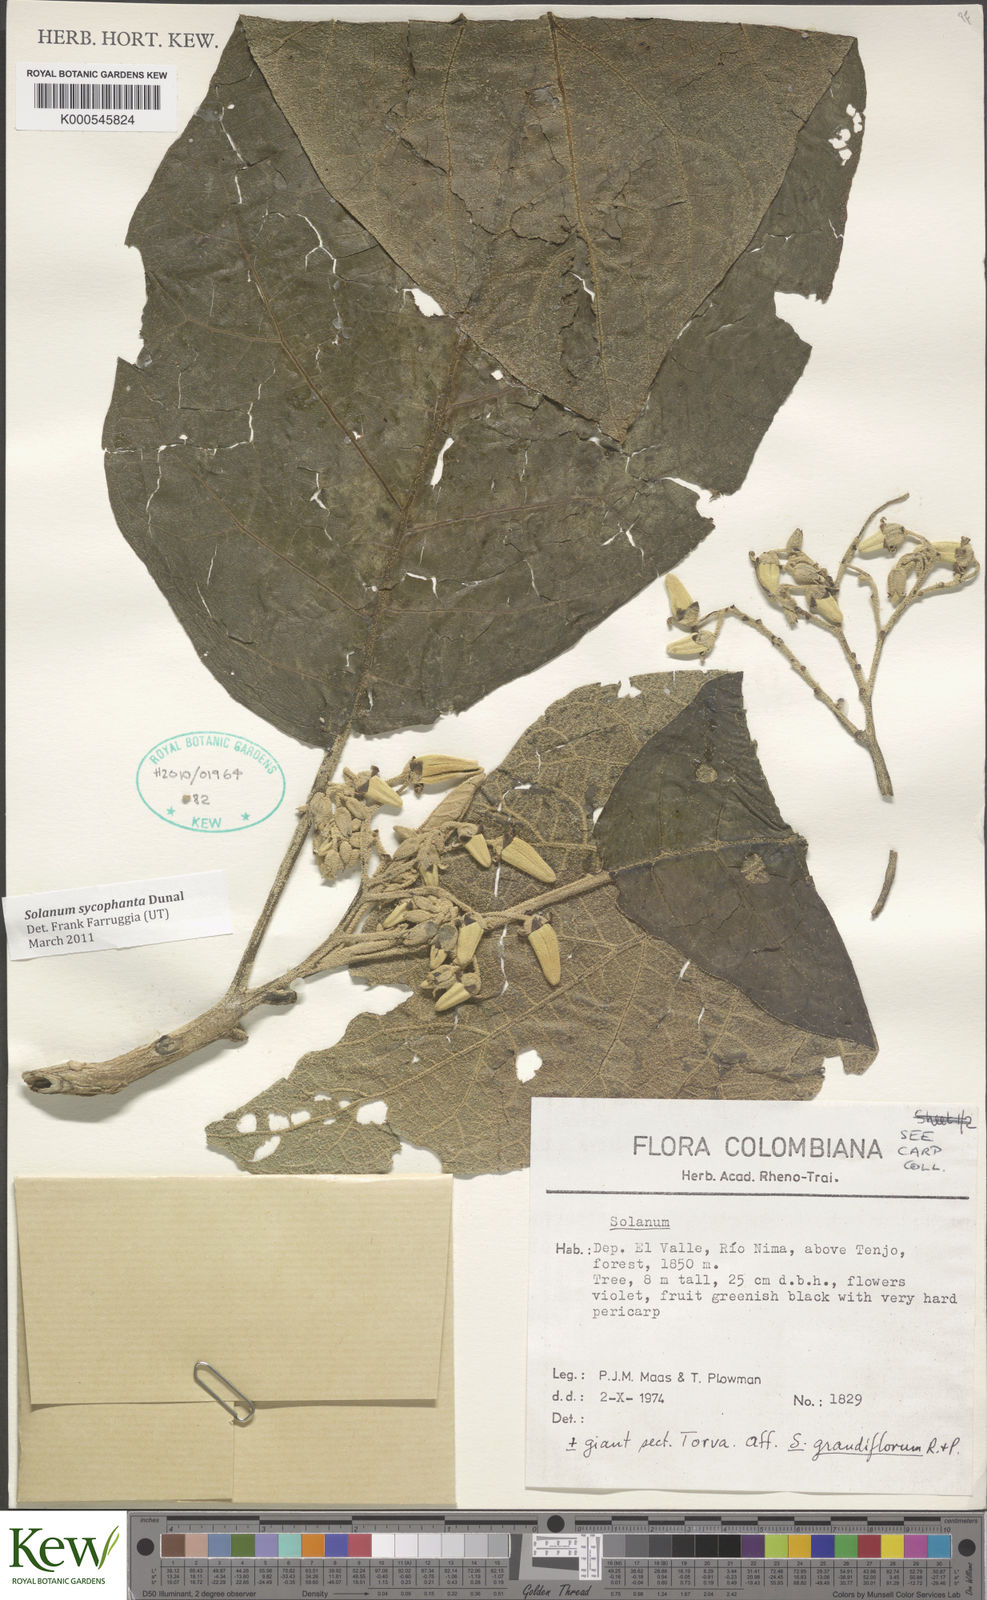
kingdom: Plantae
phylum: Tracheophyta
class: Magnoliopsida
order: Solanales
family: Solanaceae
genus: Solanum
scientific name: Solanum sycophanta
